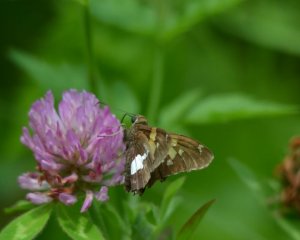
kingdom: Animalia
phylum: Arthropoda
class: Insecta
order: Lepidoptera
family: Hesperiidae
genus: Epargyreus
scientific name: Epargyreus clarus
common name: Silver-spotted Skipper
